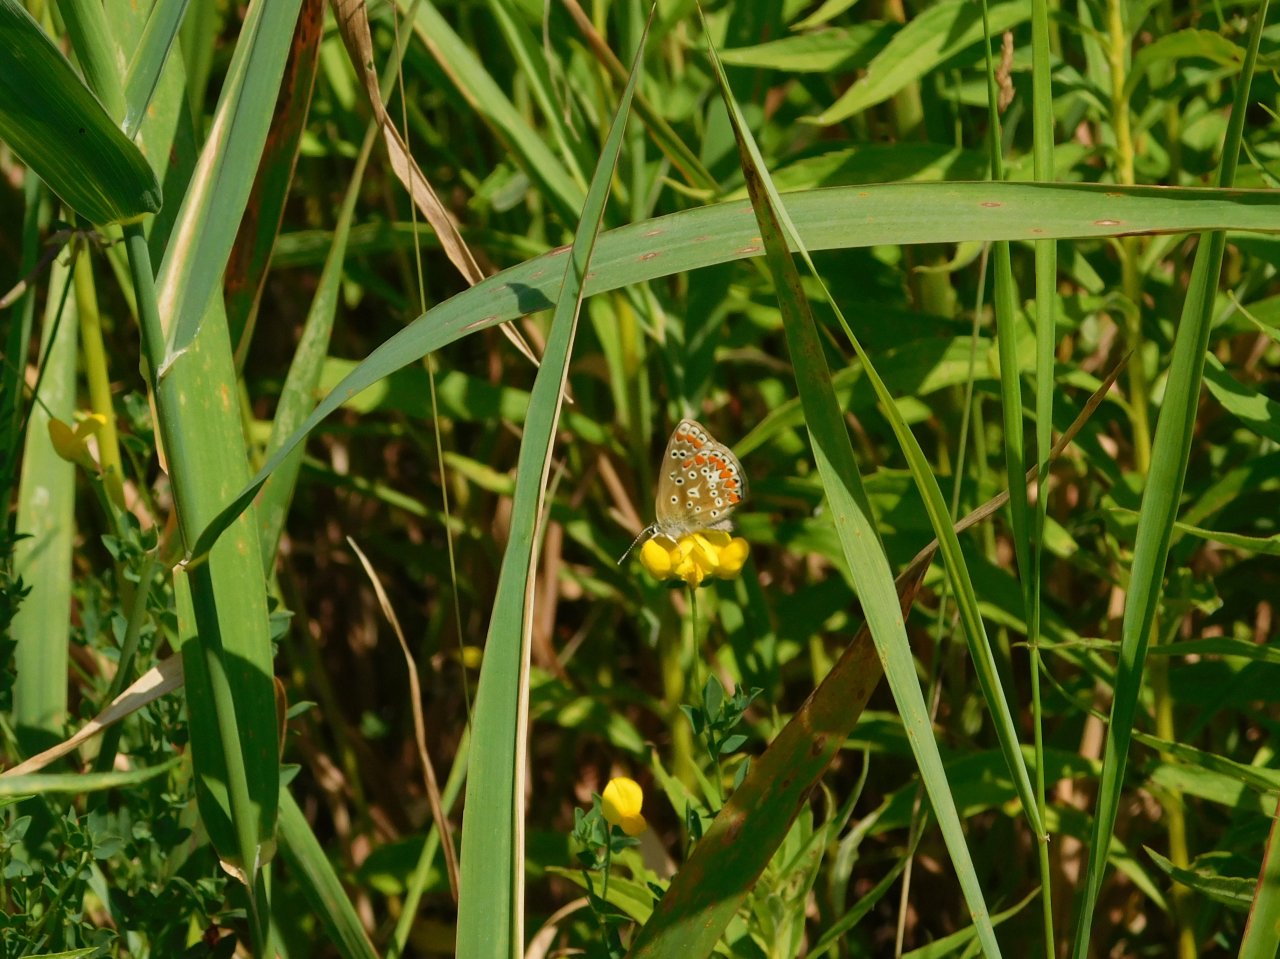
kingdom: Animalia
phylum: Arthropoda
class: Insecta
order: Lepidoptera
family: Lycaenidae
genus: Polyommatus
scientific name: Polyommatus icarus
